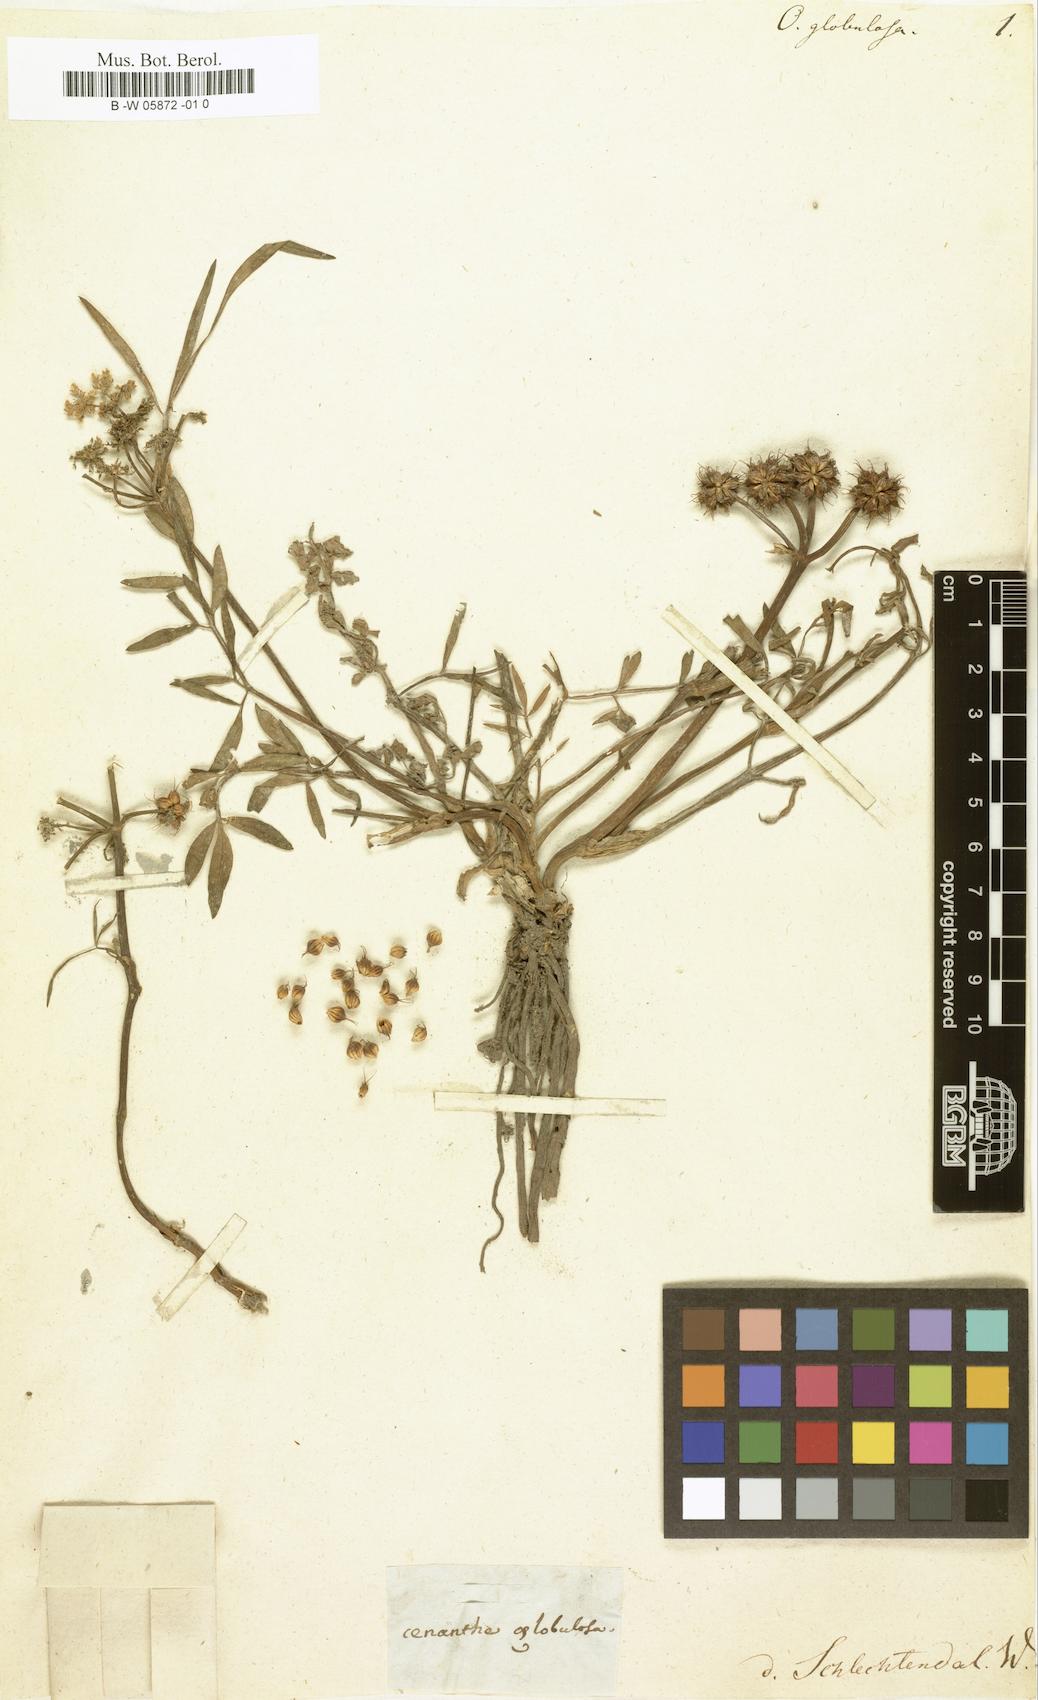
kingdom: Plantae
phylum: Tracheophyta
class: Magnoliopsida
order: Apiales
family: Apiaceae
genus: Oenanthe
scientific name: Oenanthe globulosa
